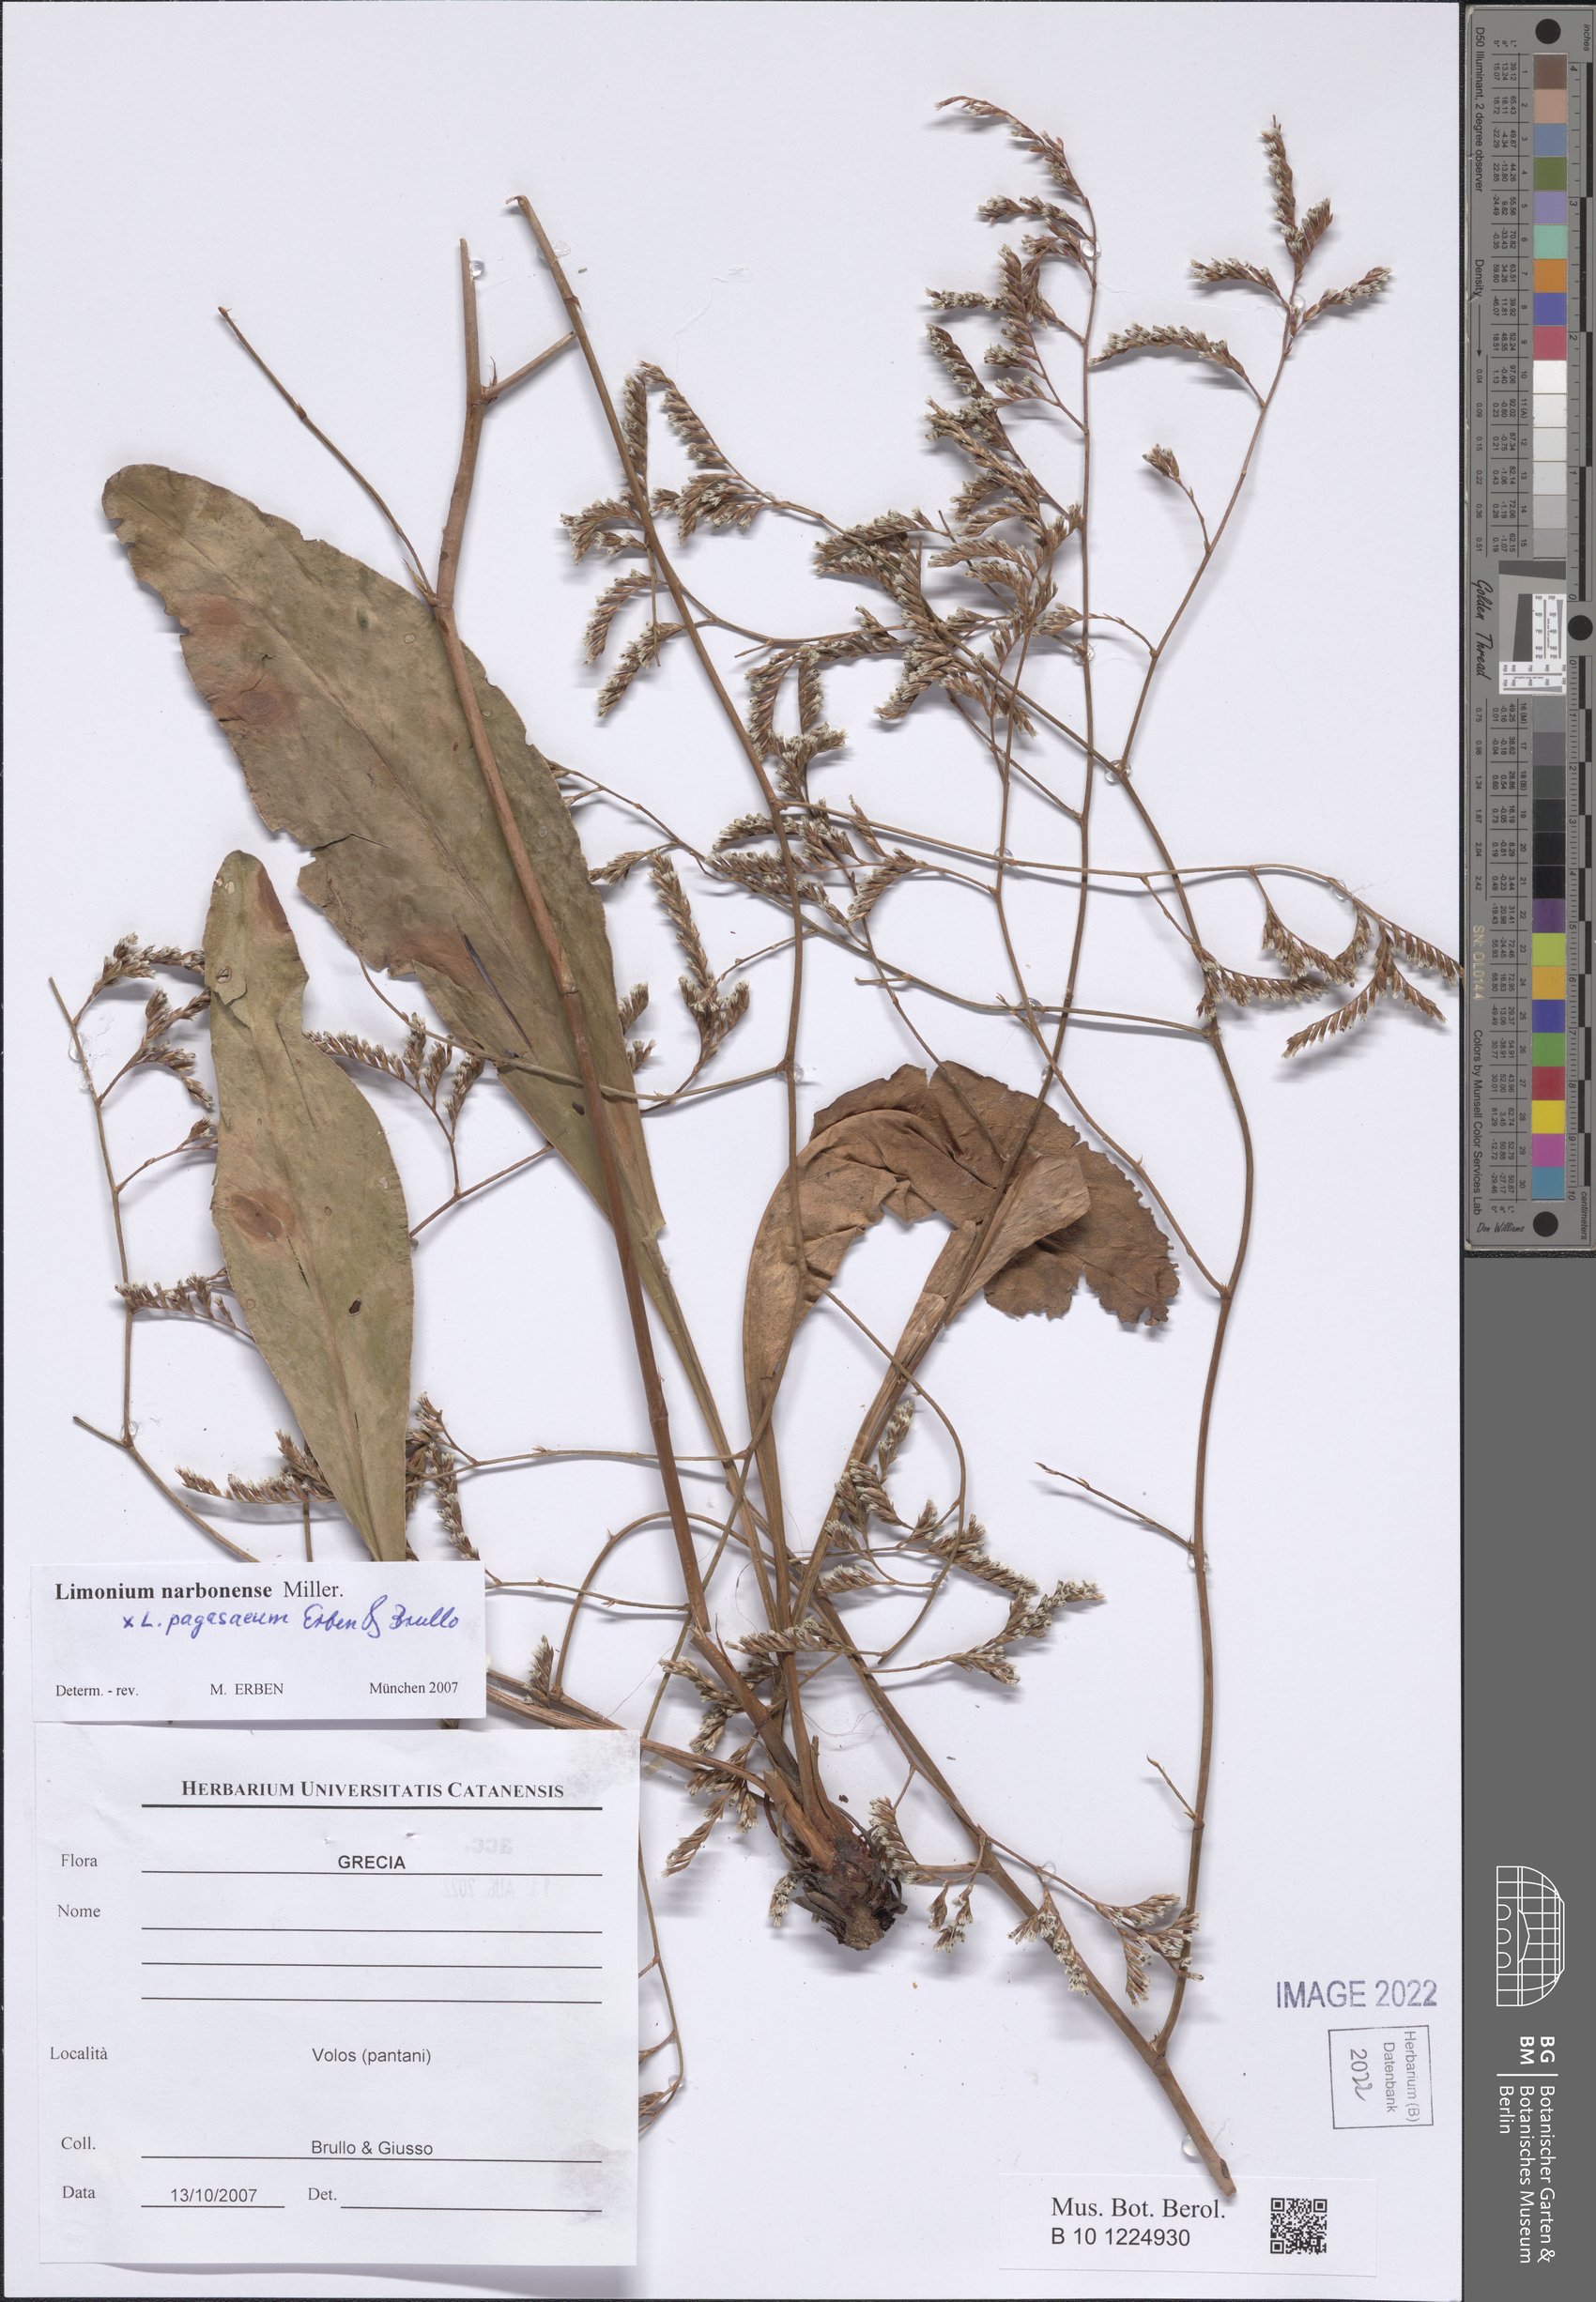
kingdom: Plantae
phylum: Tracheophyta
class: Magnoliopsida
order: Caryophyllales
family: Plumbaginaceae
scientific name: Plumbaginaceae
